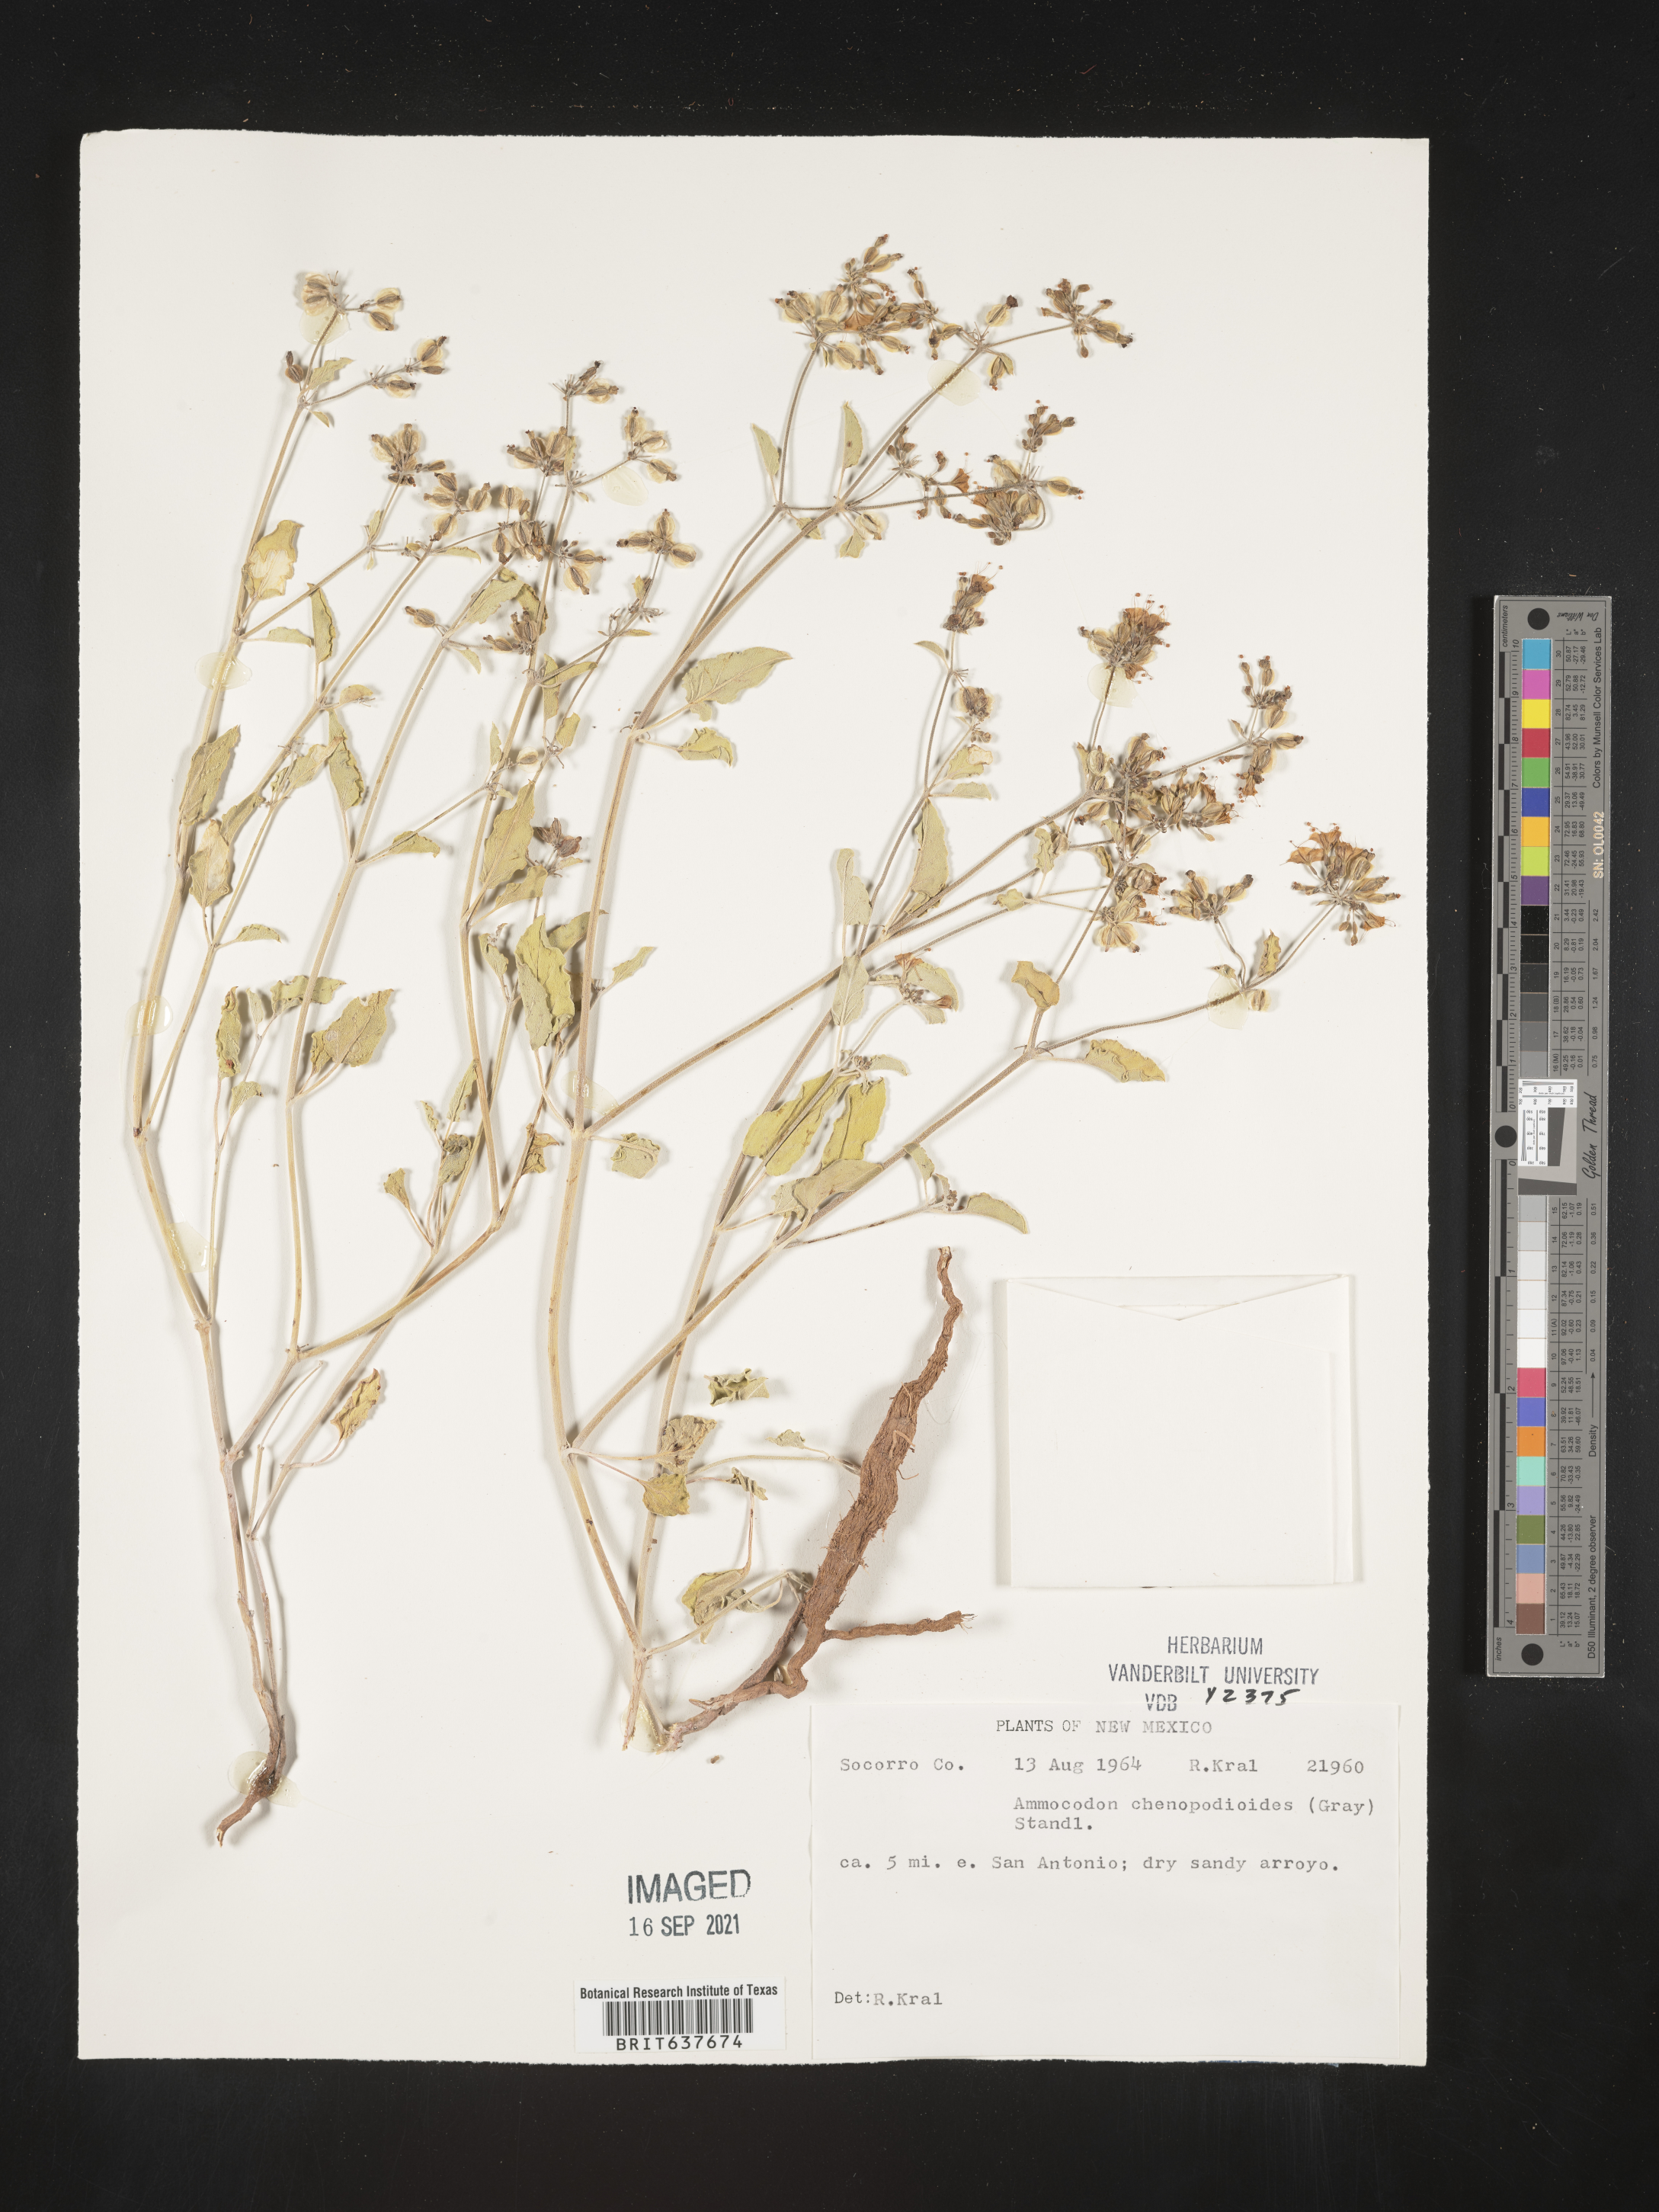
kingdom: Plantae
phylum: Tracheophyta
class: Magnoliopsida
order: Caryophyllales
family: Nyctaginaceae
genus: Acleisanthes
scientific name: Acleisanthes chenopodioides
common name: Goosefoot moonpod
